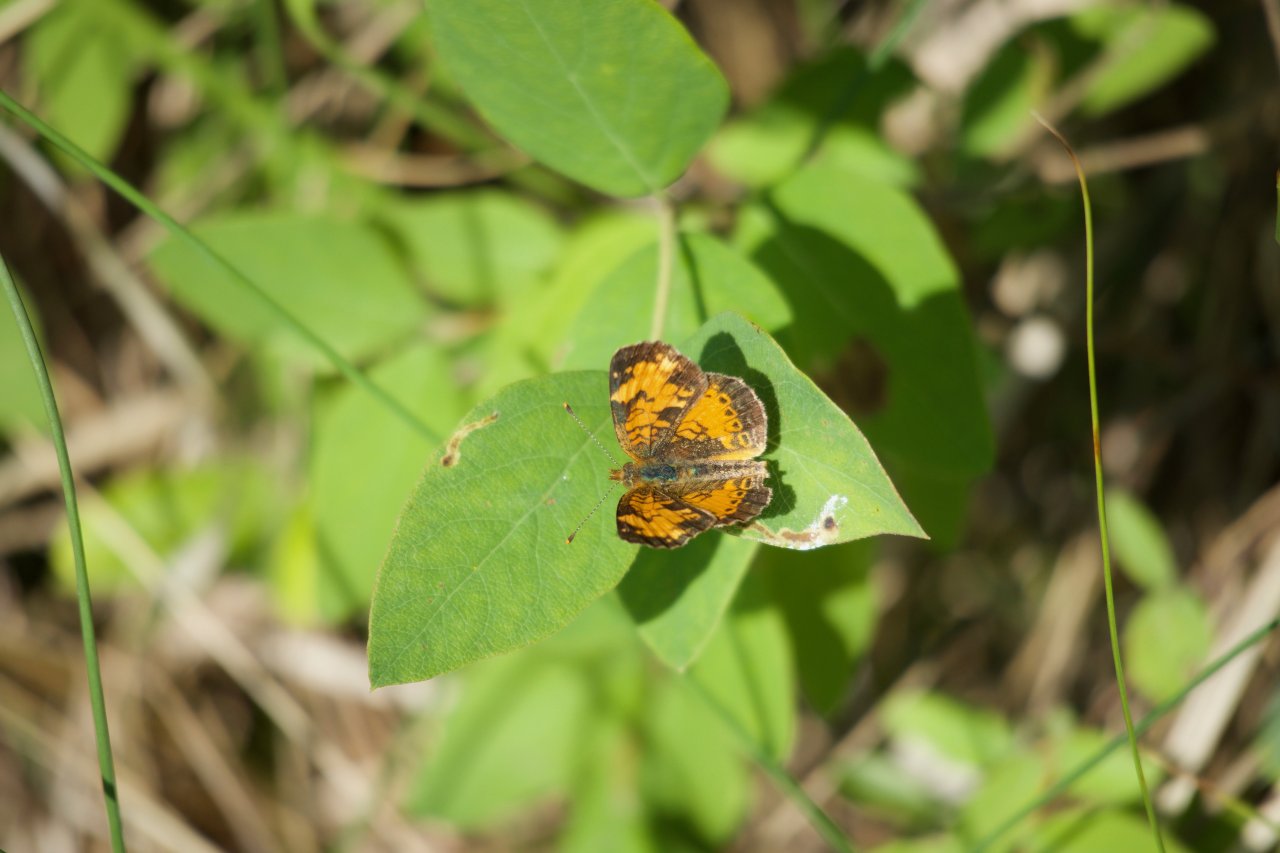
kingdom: Animalia
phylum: Arthropoda
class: Insecta
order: Lepidoptera
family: Nymphalidae
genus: Phyciodes
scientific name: Phyciodes tharos
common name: Northern Crescent
